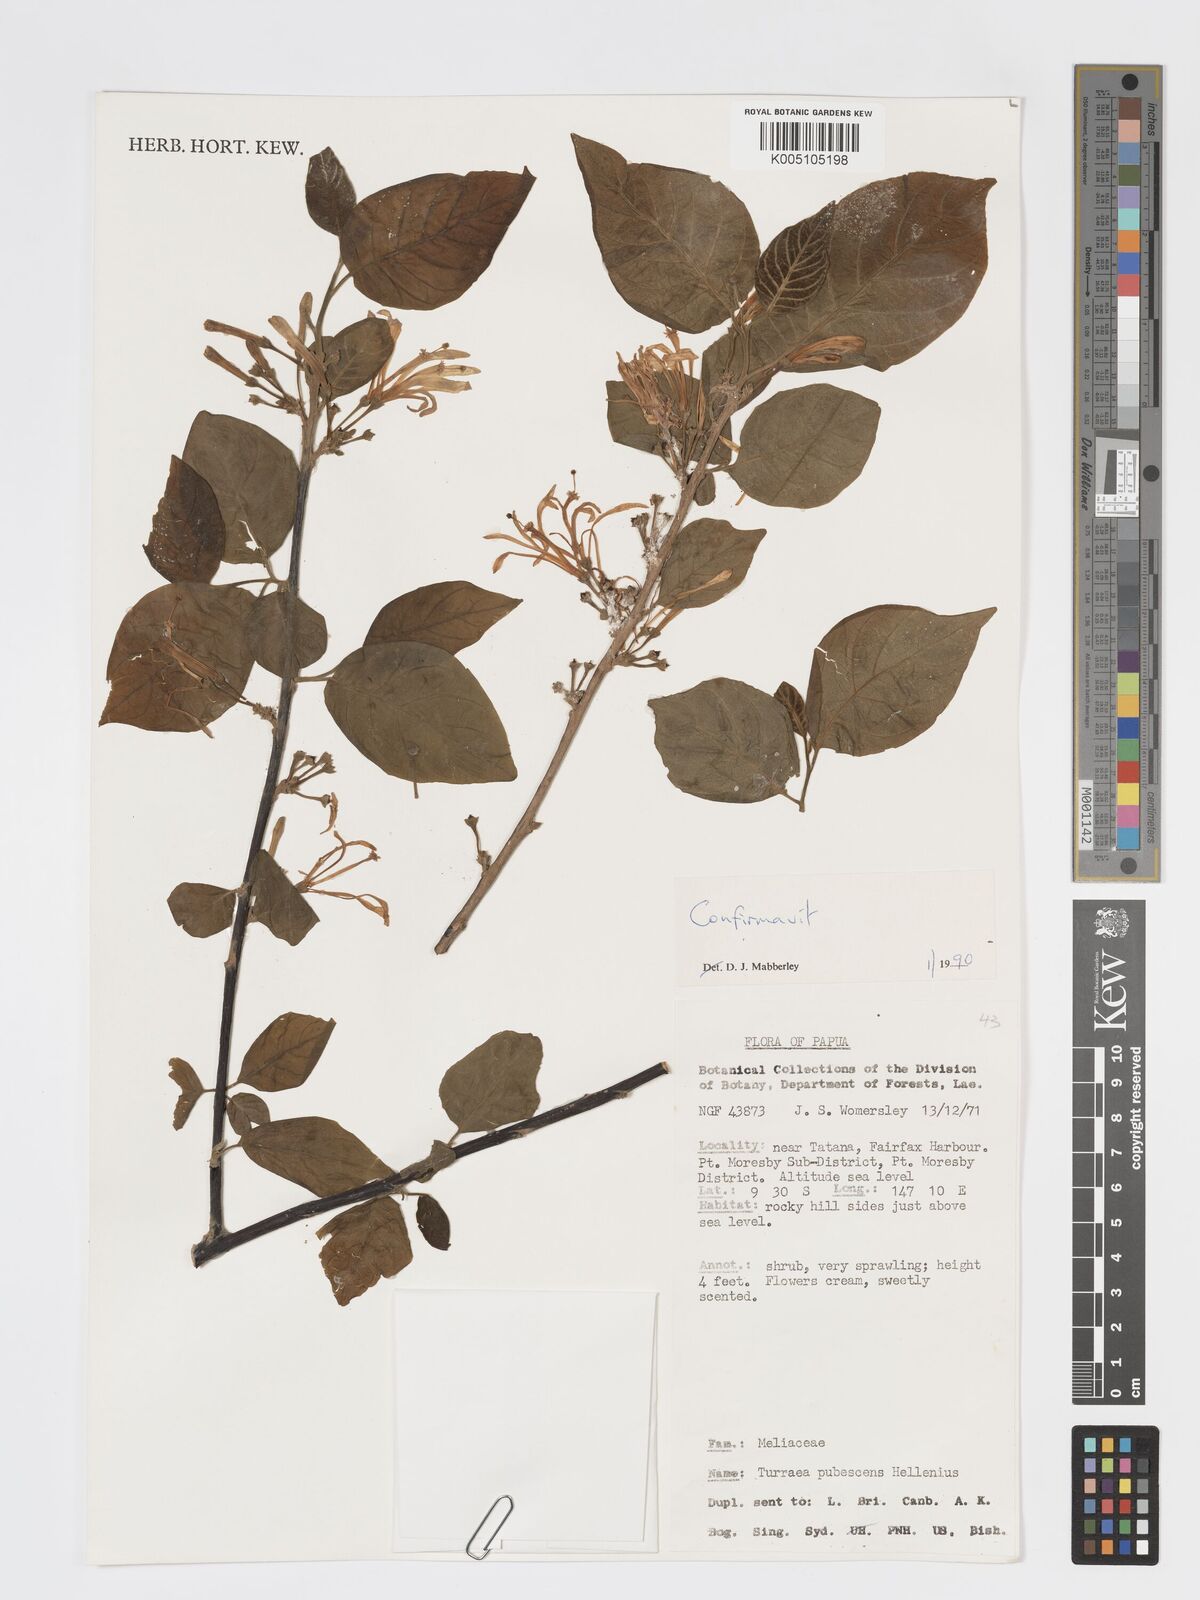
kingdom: Plantae
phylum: Tracheophyta
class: Magnoliopsida
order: Sapindales
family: Meliaceae
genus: Turraea
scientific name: Turraea
